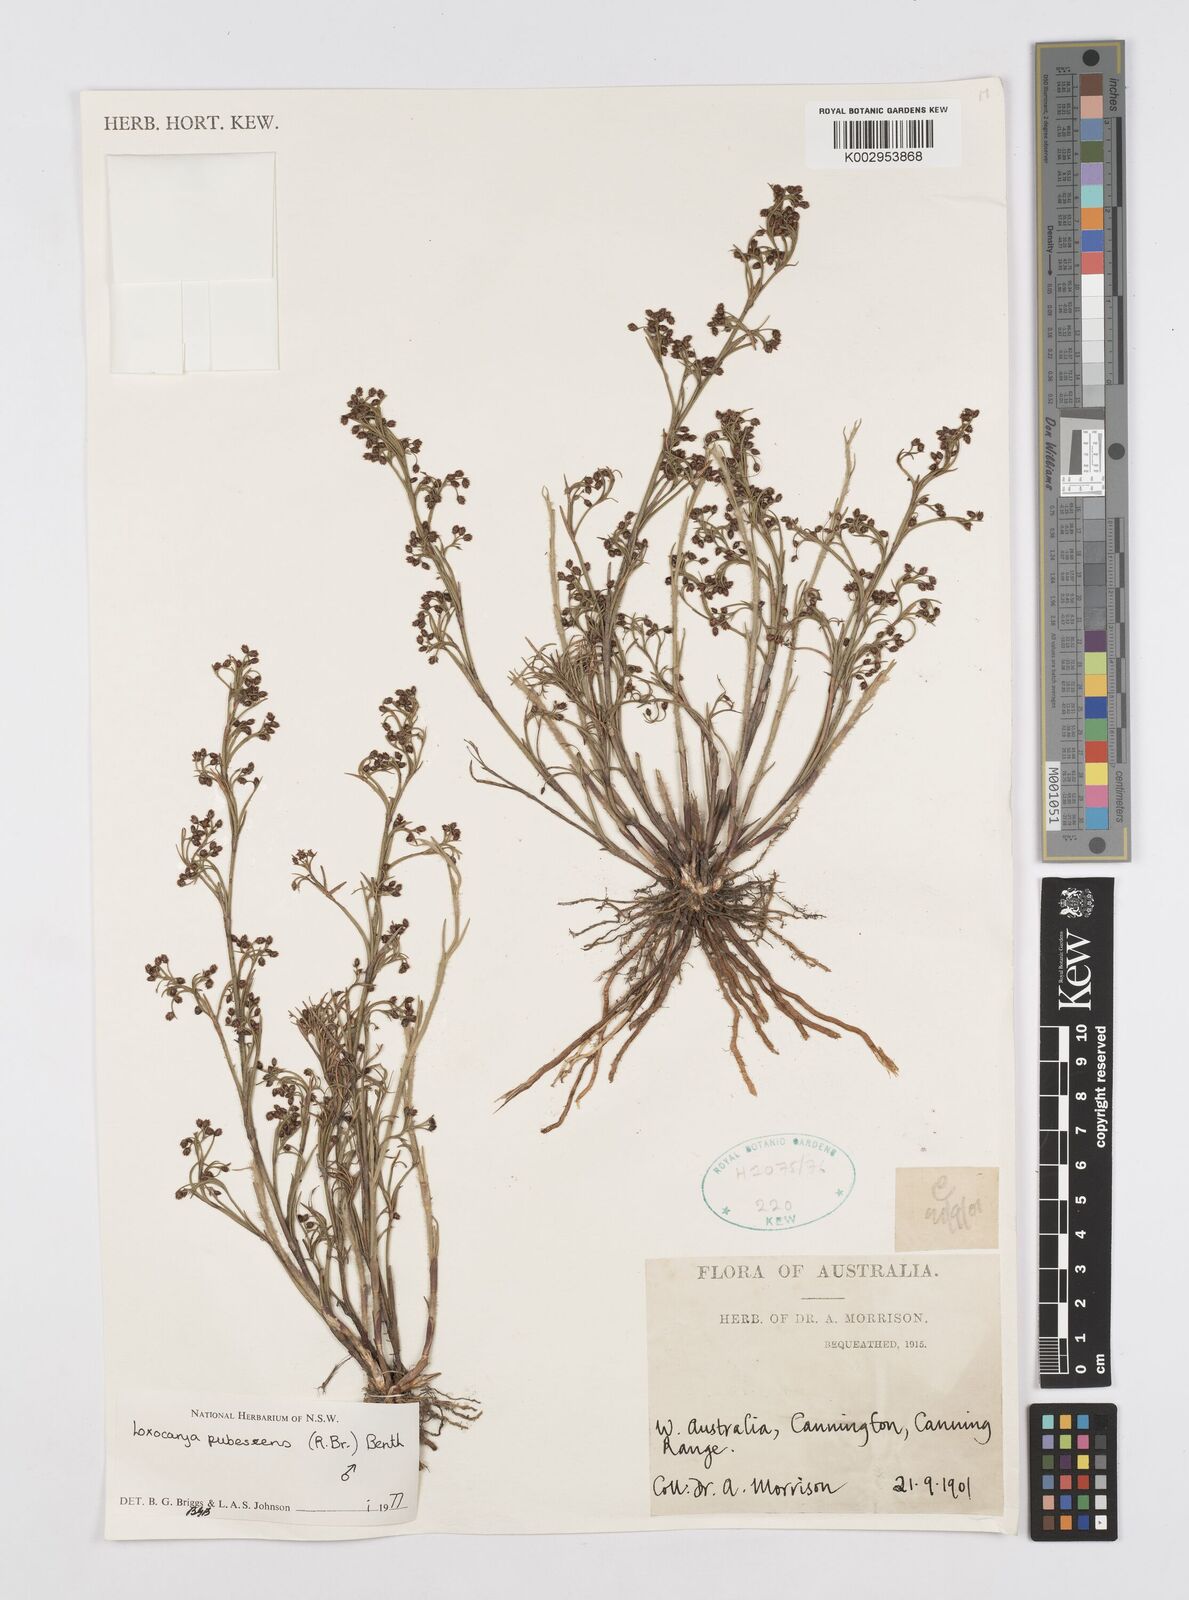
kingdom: Plantae
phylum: Tracheophyta
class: Liliopsida
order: Poales
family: Restionaceae
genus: Hypolaena
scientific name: Hypolaena pubescens
